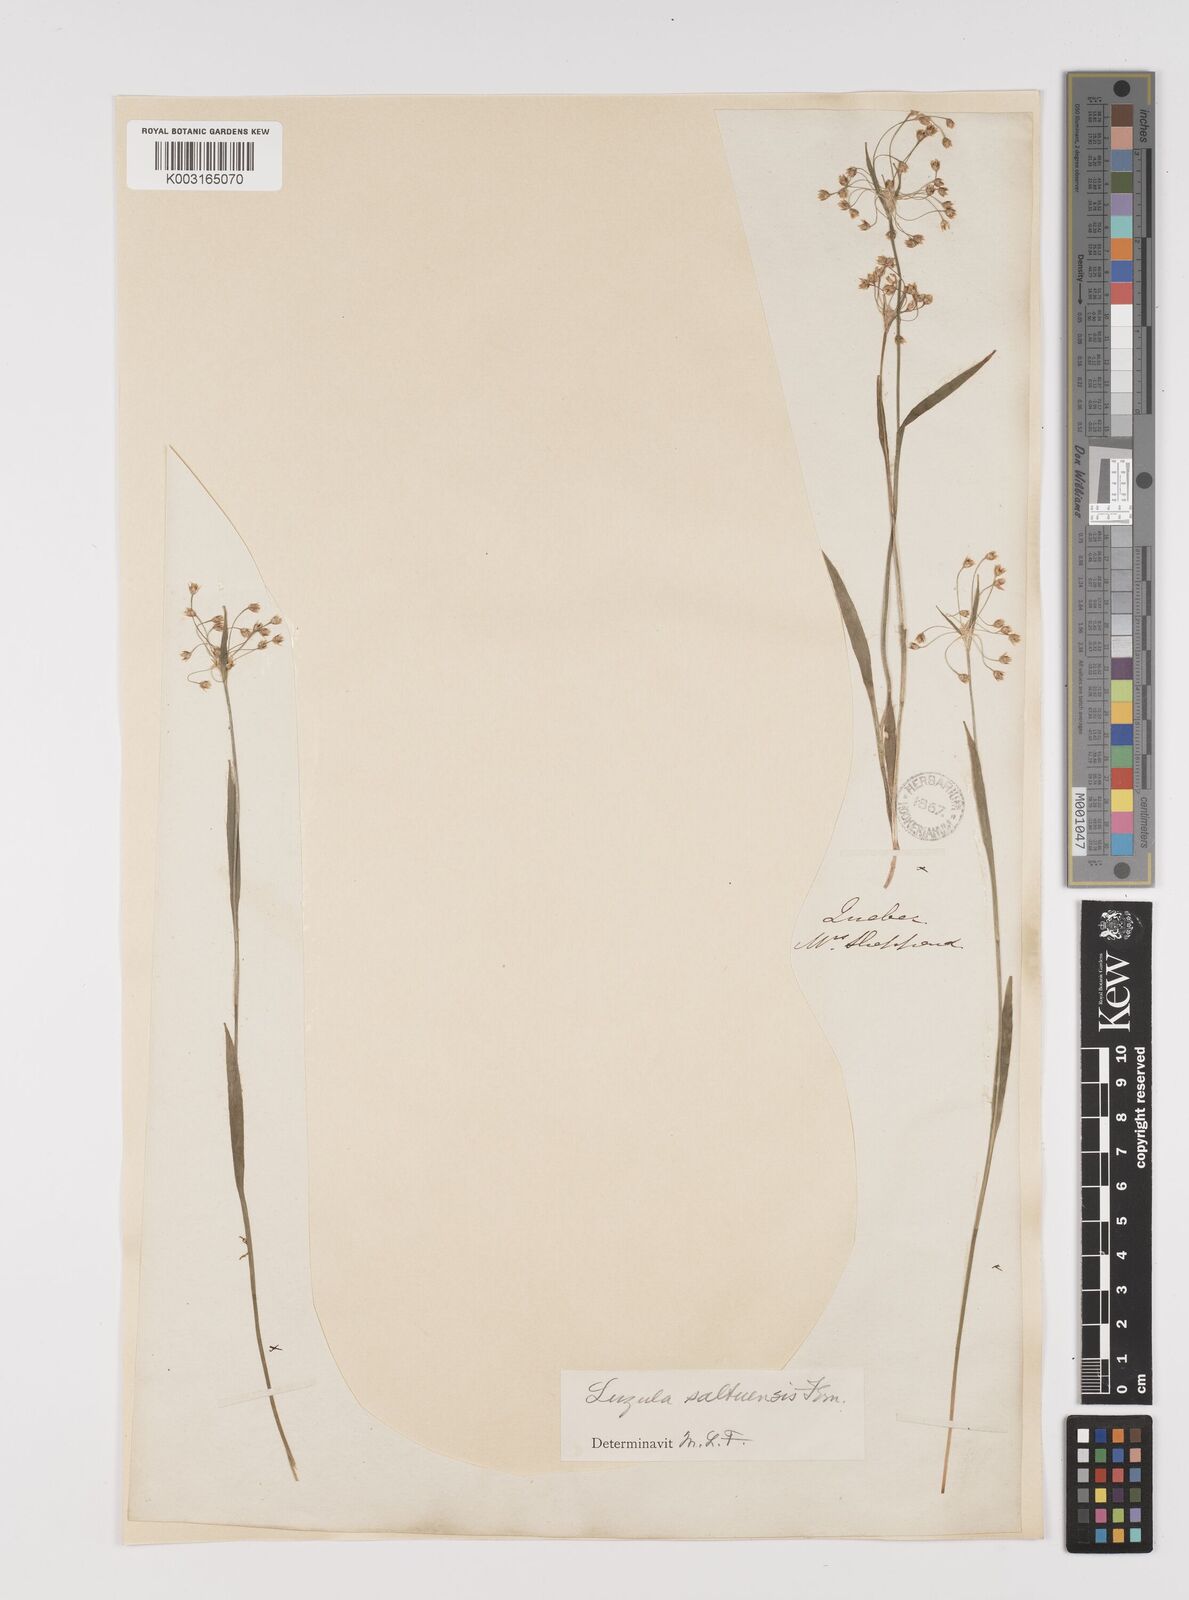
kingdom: Plantae
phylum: Tracheophyta
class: Liliopsida
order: Poales
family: Juncaceae
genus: Luzula
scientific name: Luzula acuminata
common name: Hairy woodrush
